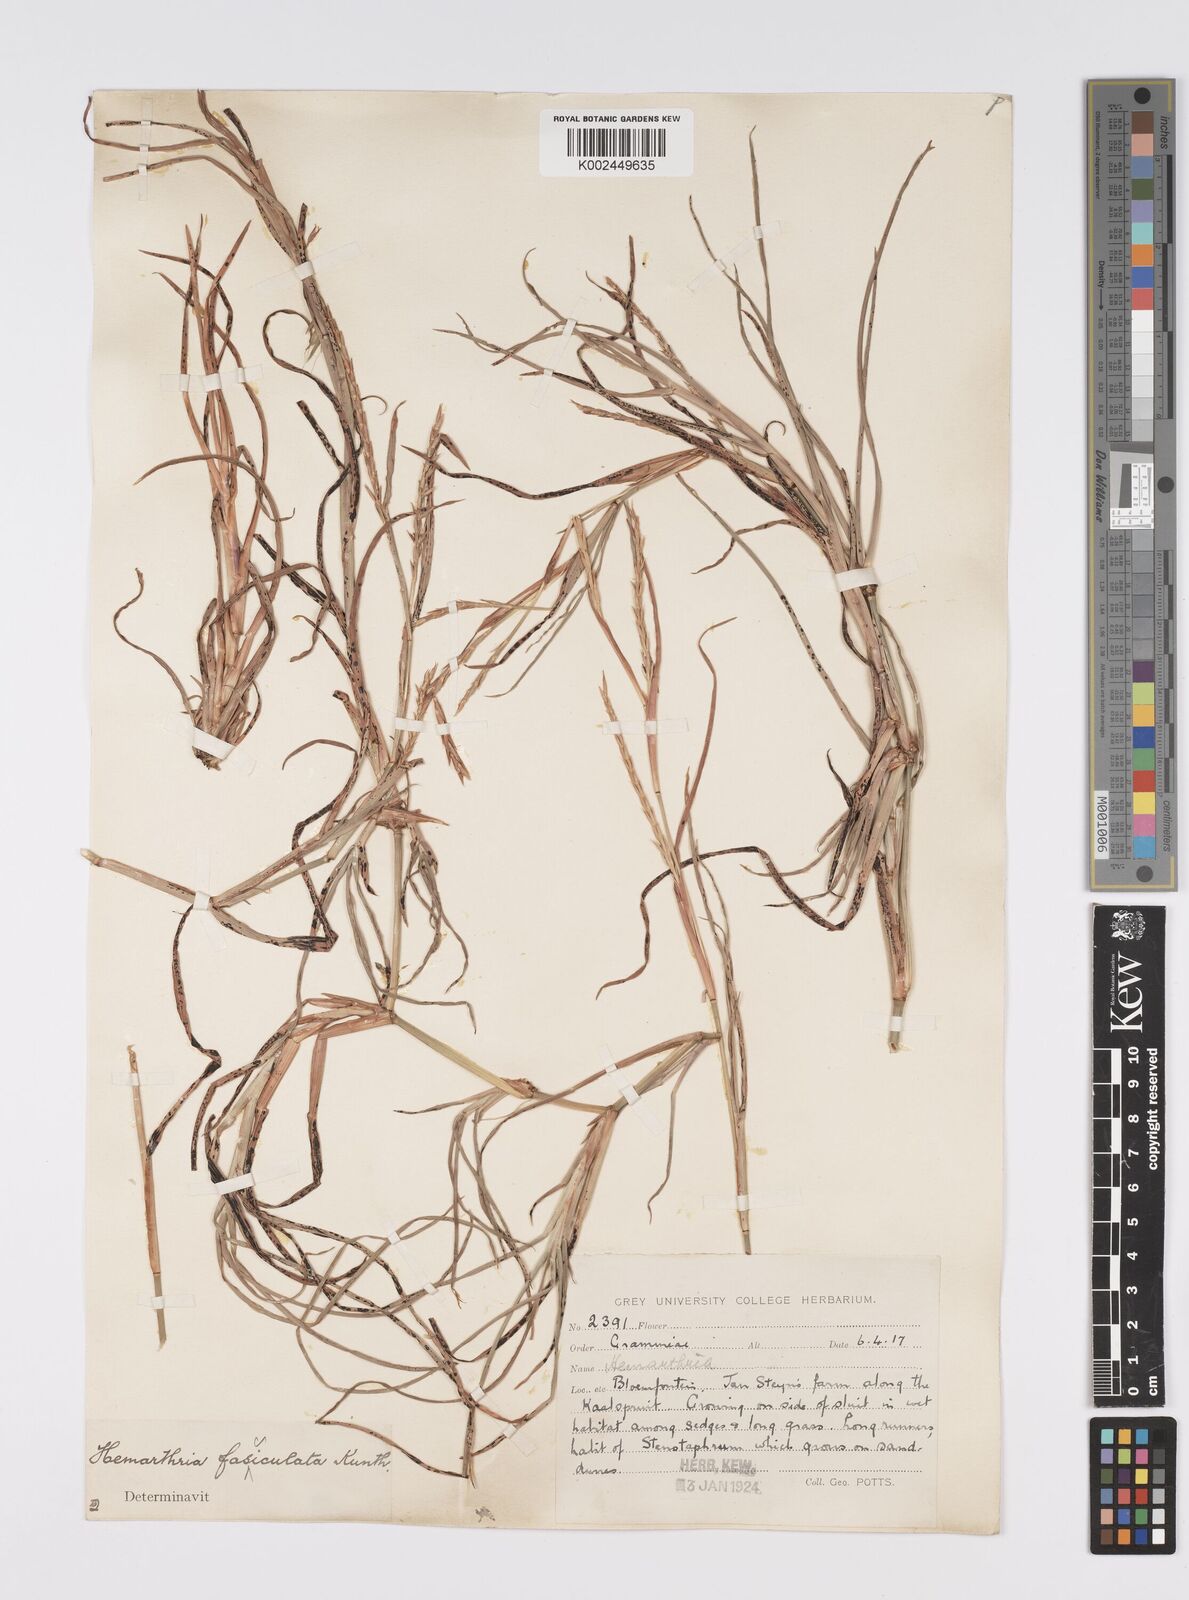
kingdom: Plantae
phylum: Tracheophyta
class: Liliopsida
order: Poales
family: Poaceae
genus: Hemarthria
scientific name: Hemarthria altissima
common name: African jointgrass
